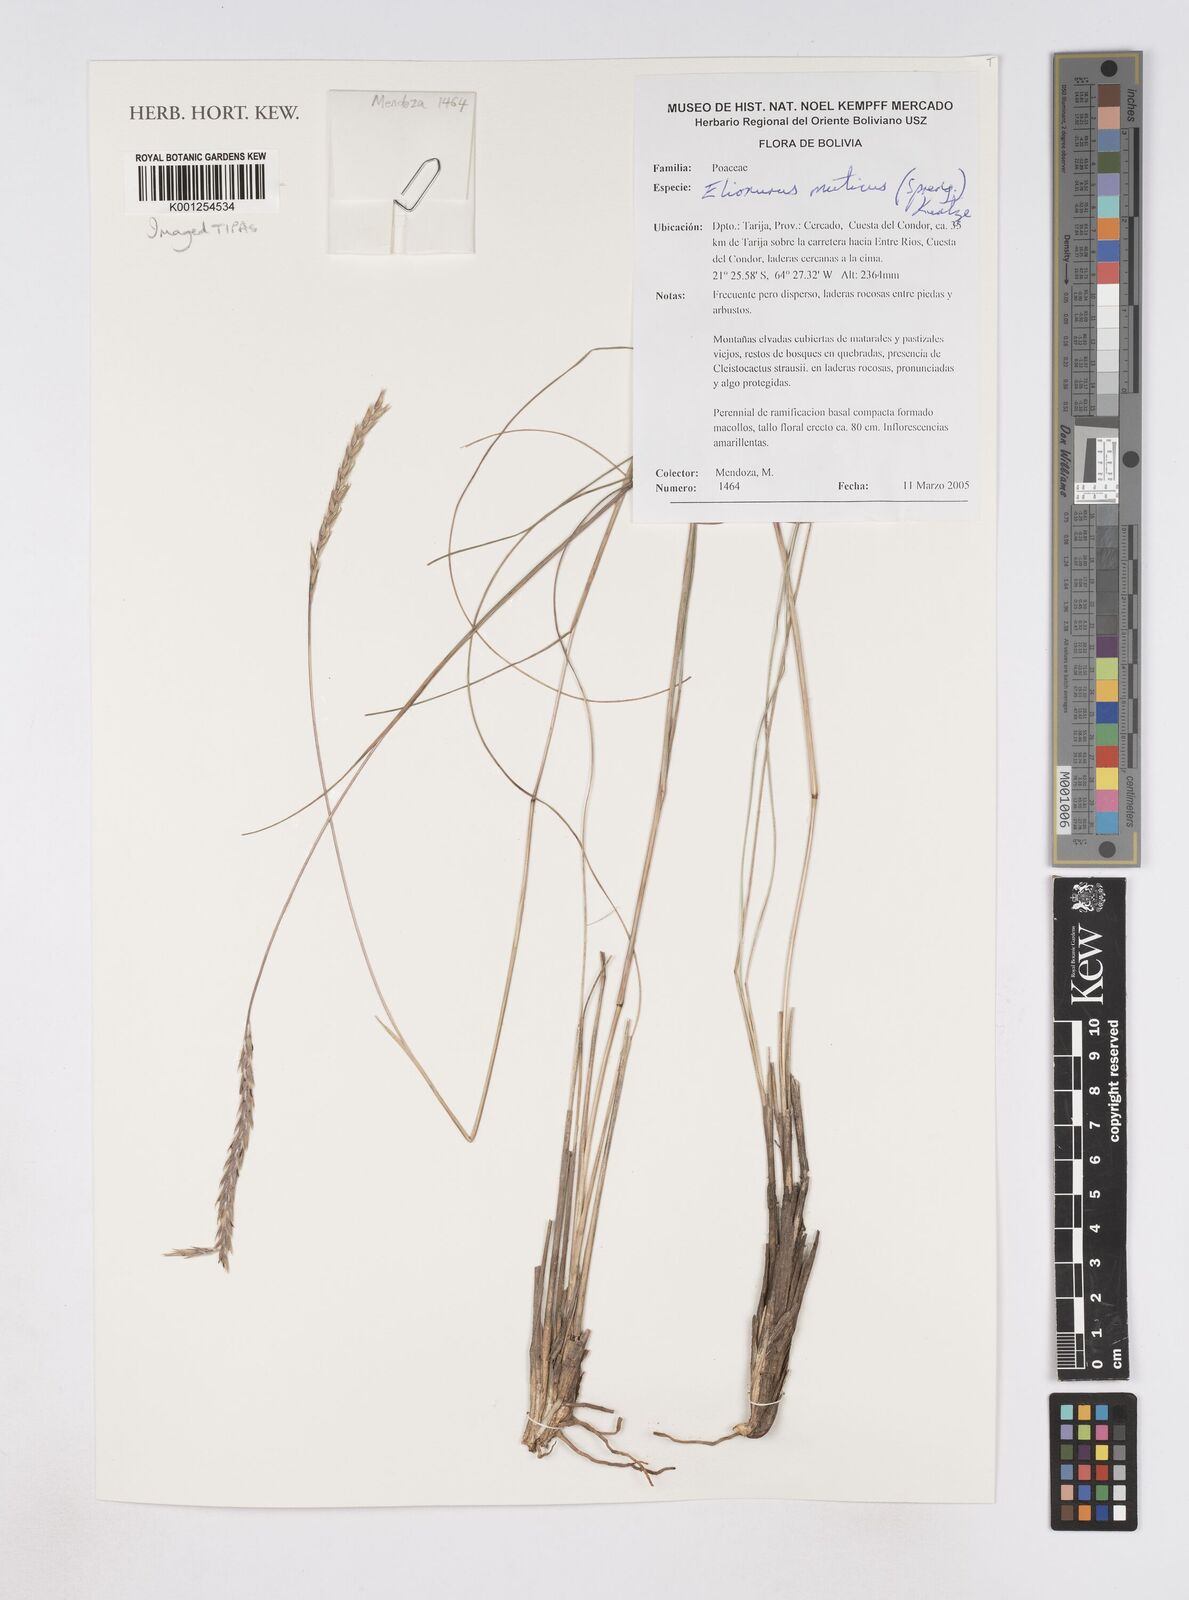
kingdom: Plantae
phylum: Tracheophyta
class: Liliopsida
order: Poales
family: Poaceae
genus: Elionurus
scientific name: Elionurus muticus
